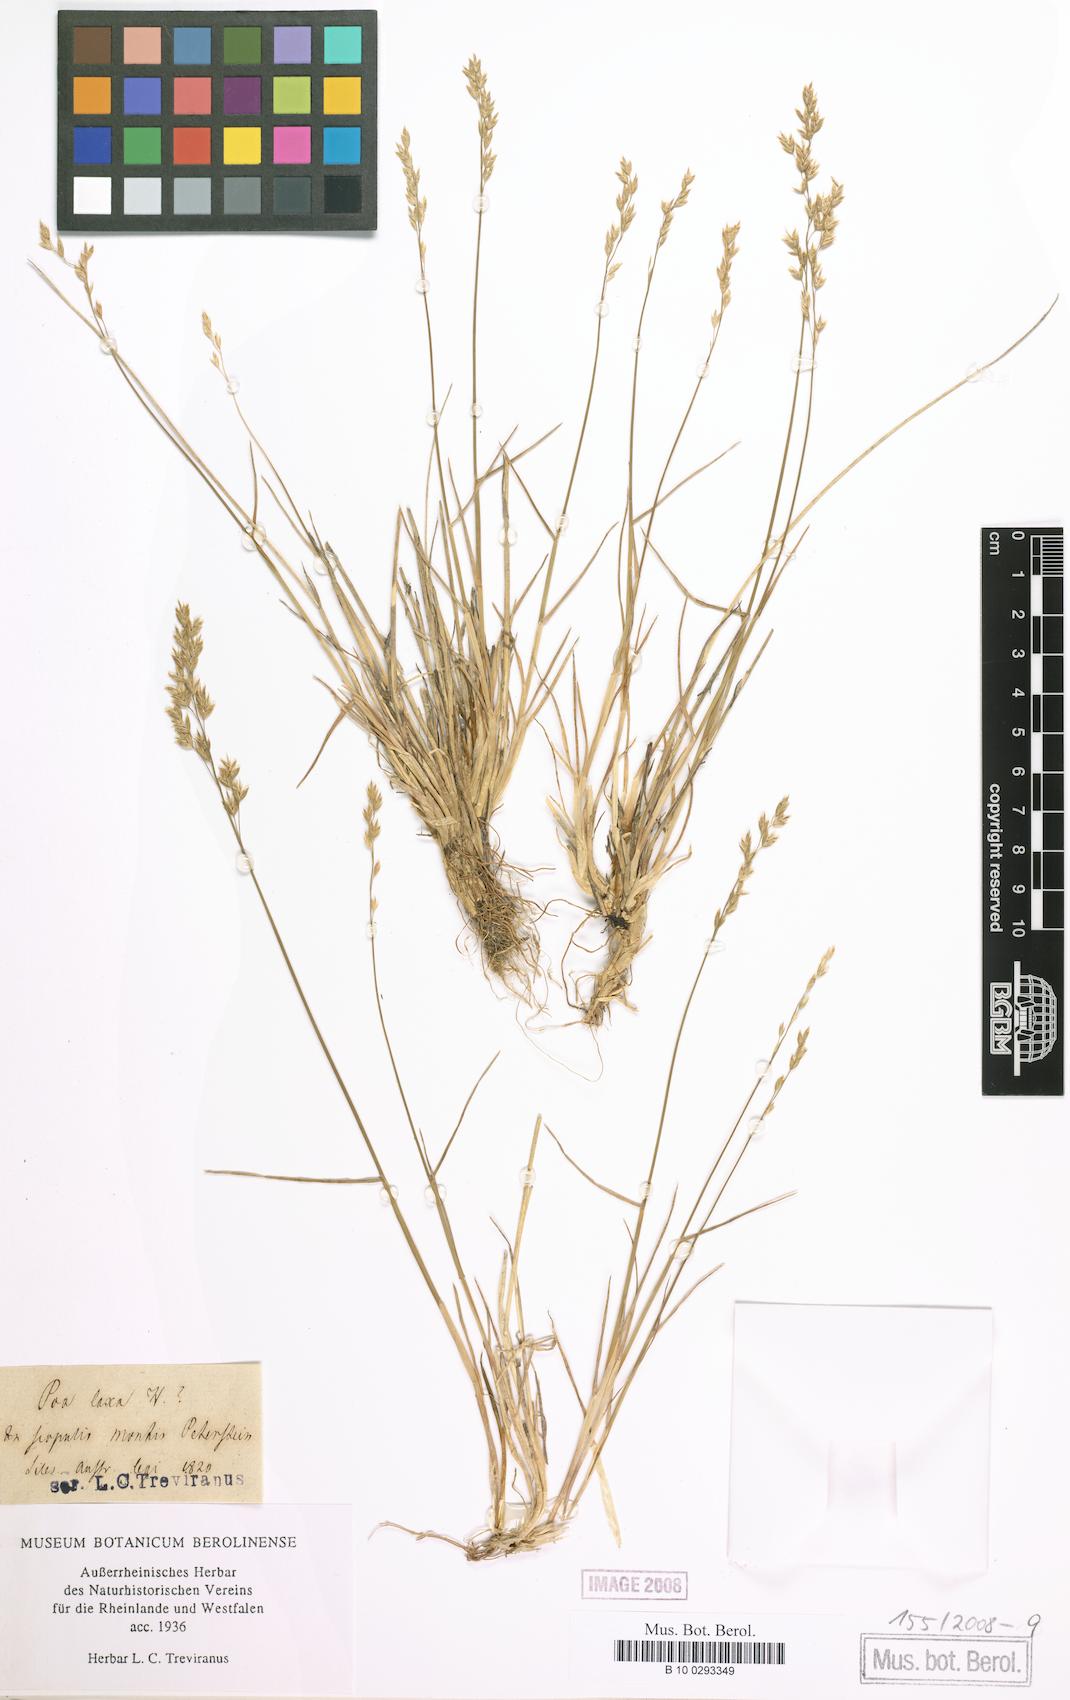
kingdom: Plantae
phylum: Tracheophyta
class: Liliopsida
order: Poales
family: Poaceae
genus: Poa
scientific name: Poa glauca
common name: Glaucous bluegrass
